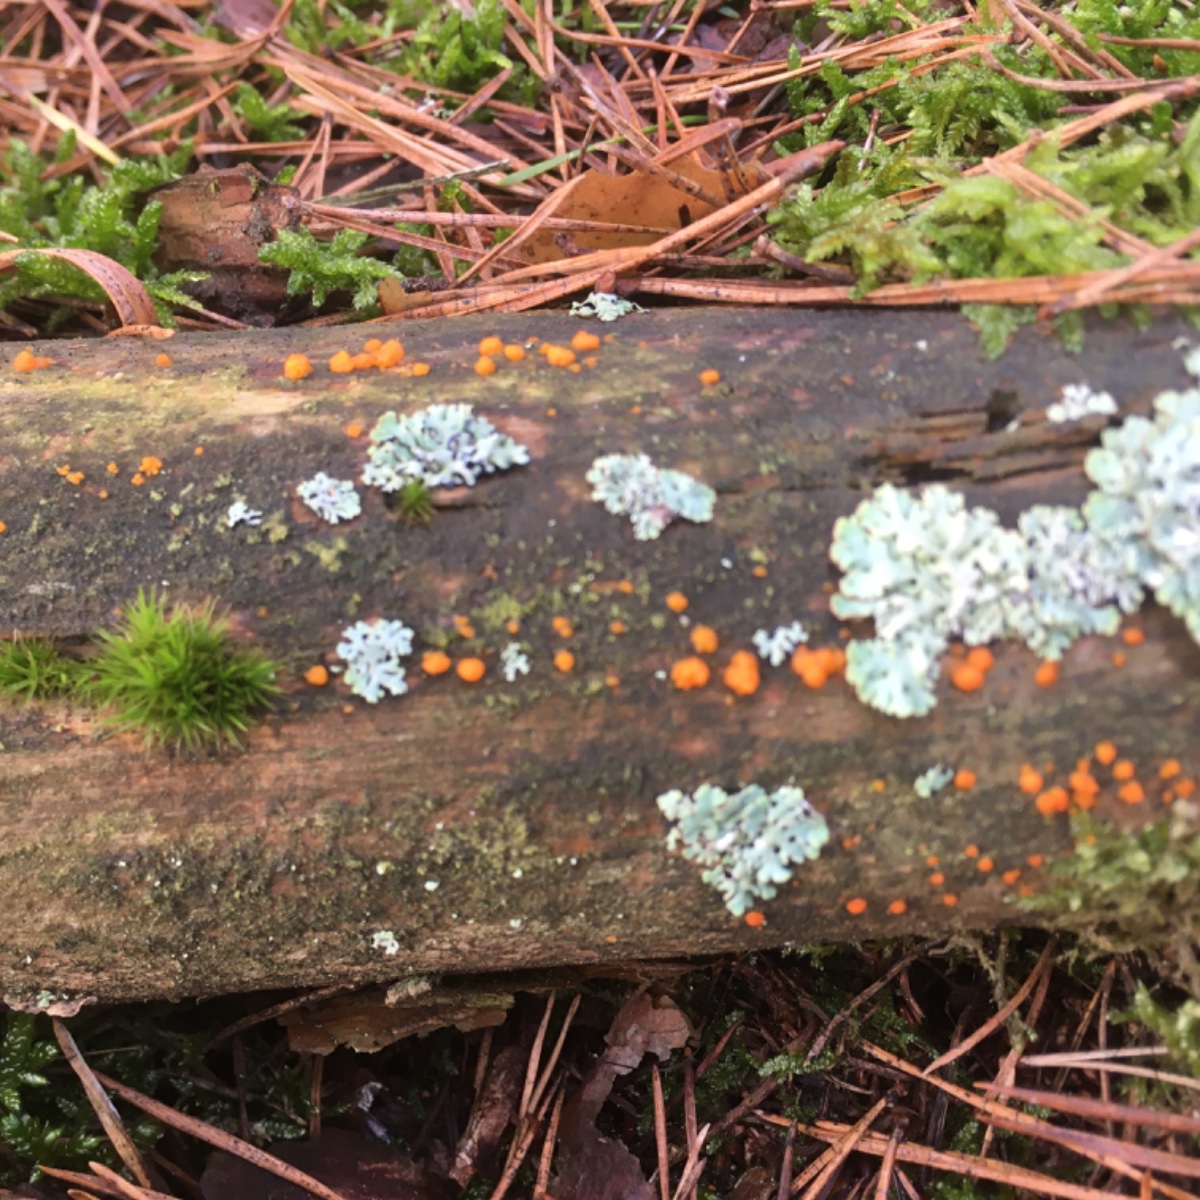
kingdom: Fungi
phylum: Basidiomycota
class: Dacrymycetes
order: Dacrymycetales
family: Dacrymycetaceae
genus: Dacrymyces
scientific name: Dacrymyces stillatus
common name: almindelig tåresvamp
